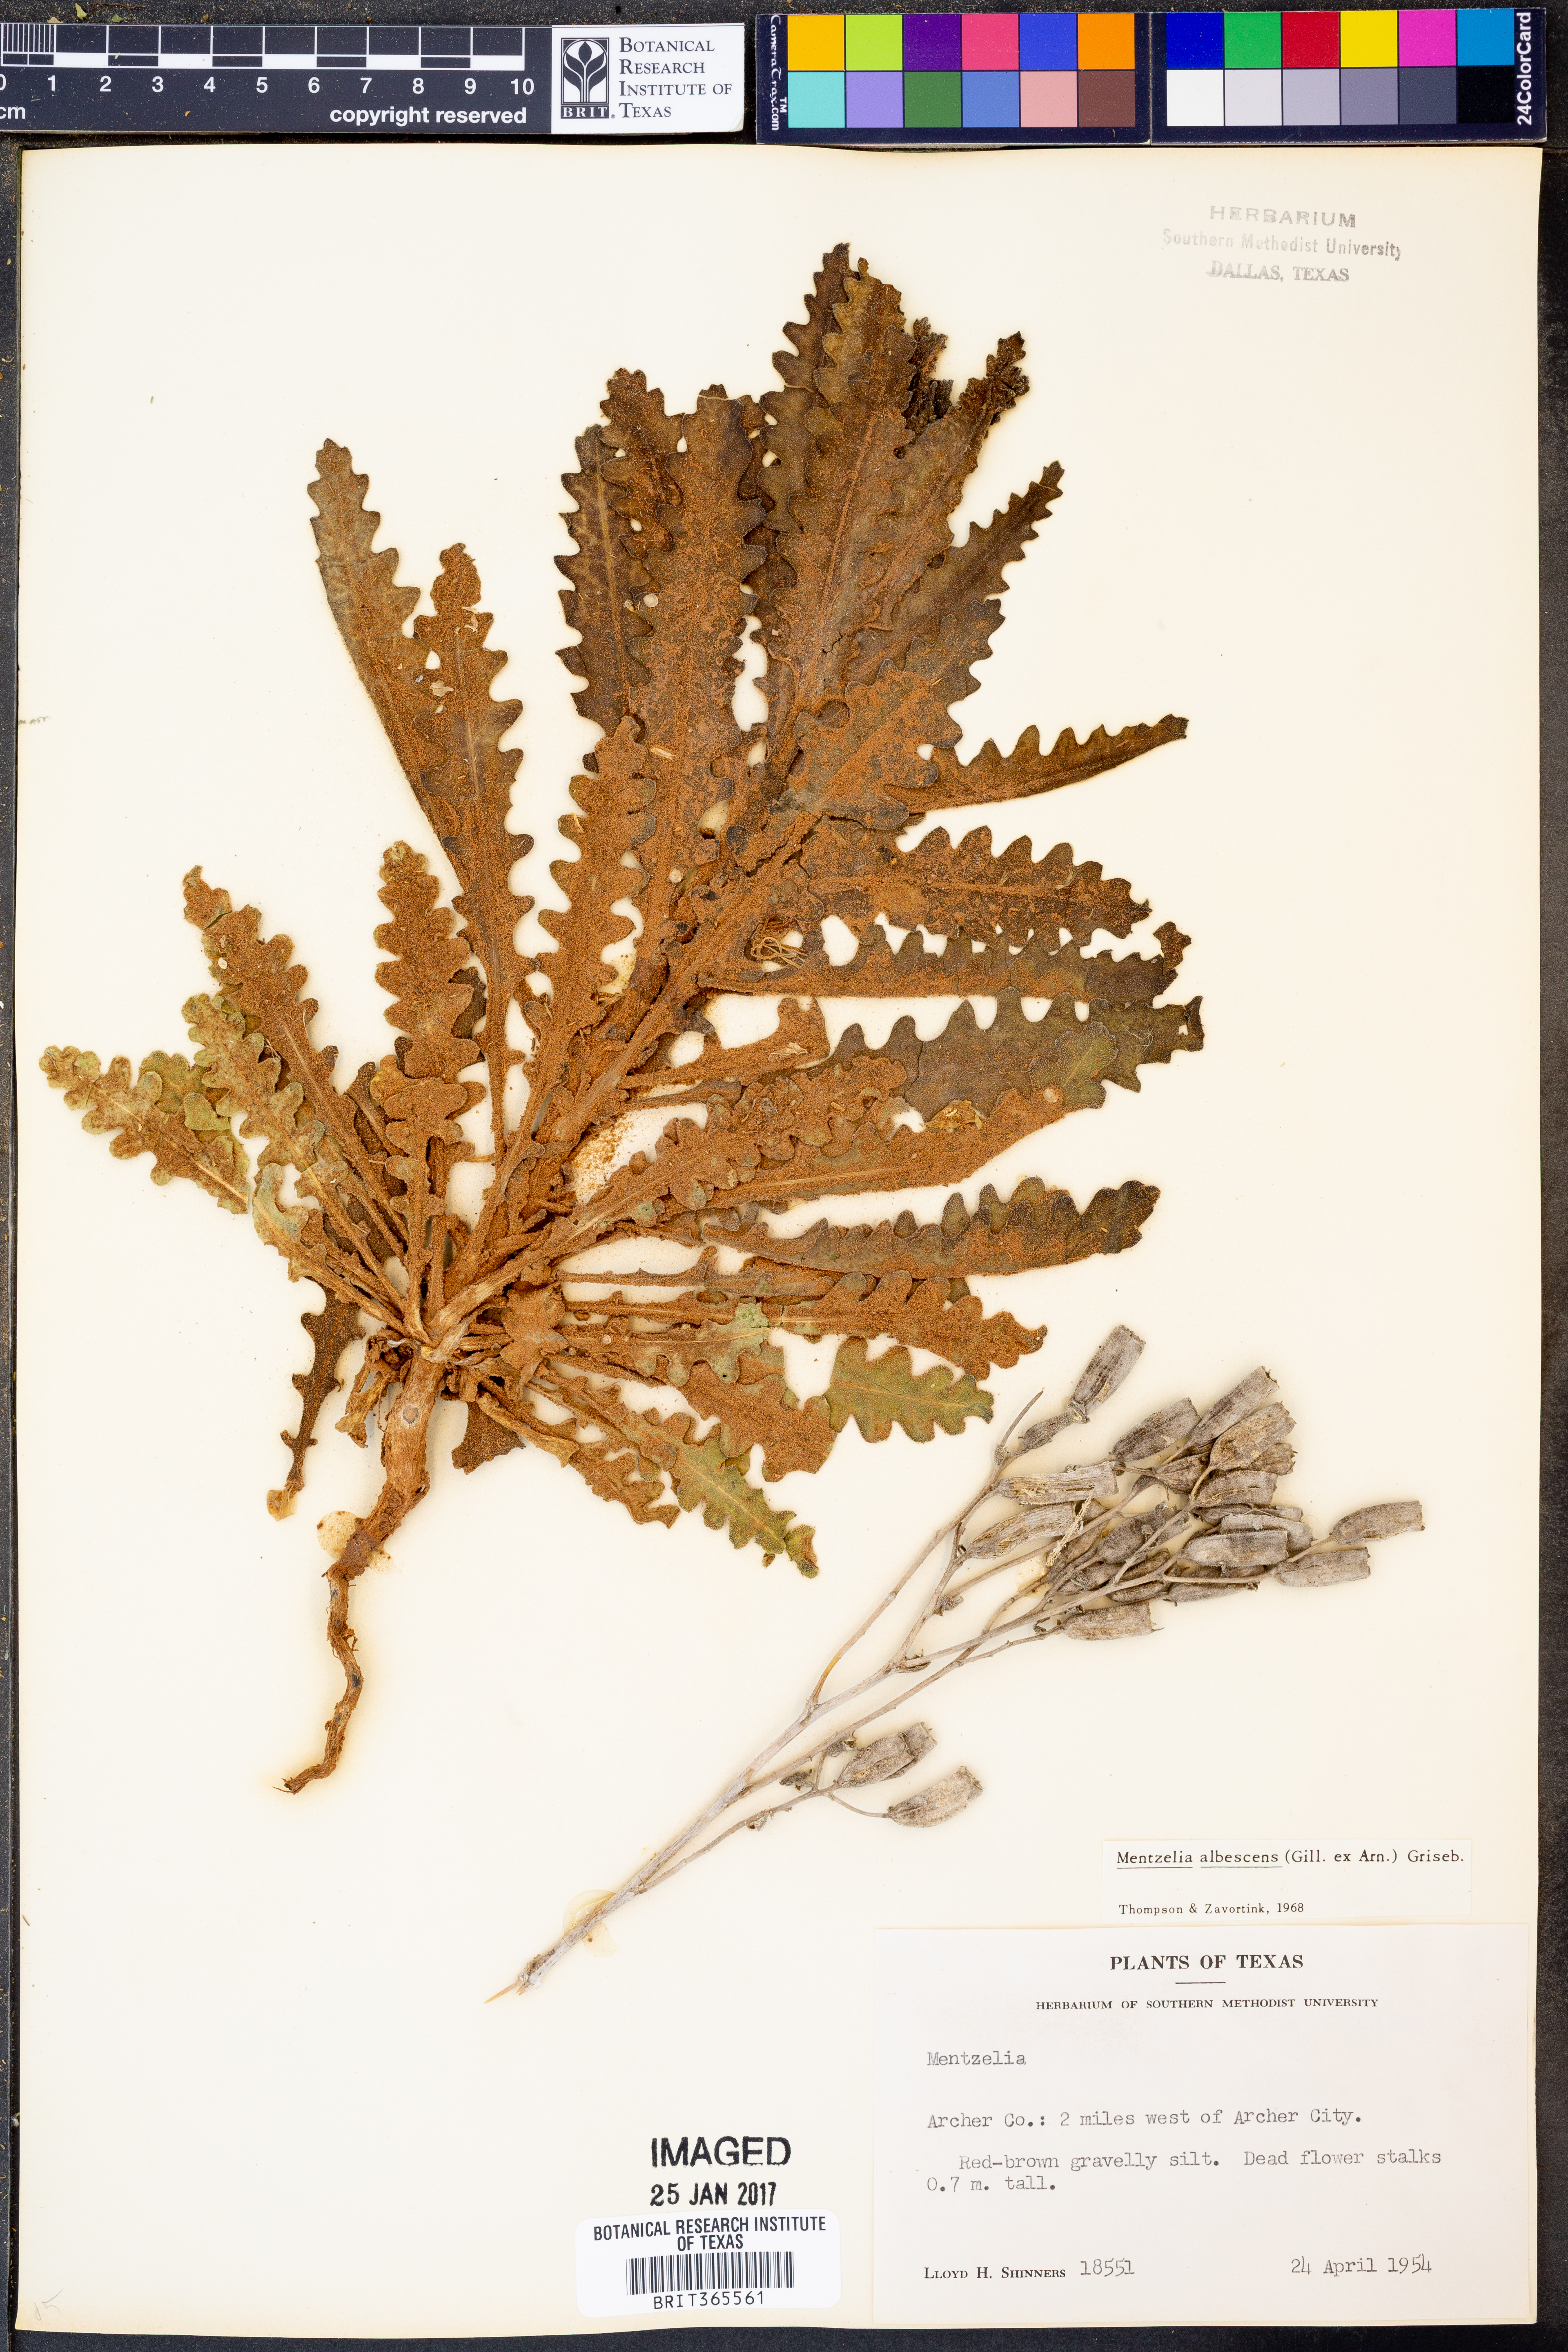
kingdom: Plantae
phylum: Tracheophyta
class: Magnoliopsida
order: Cornales
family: Loasaceae
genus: Mentzelia
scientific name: Mentzelia albescens
